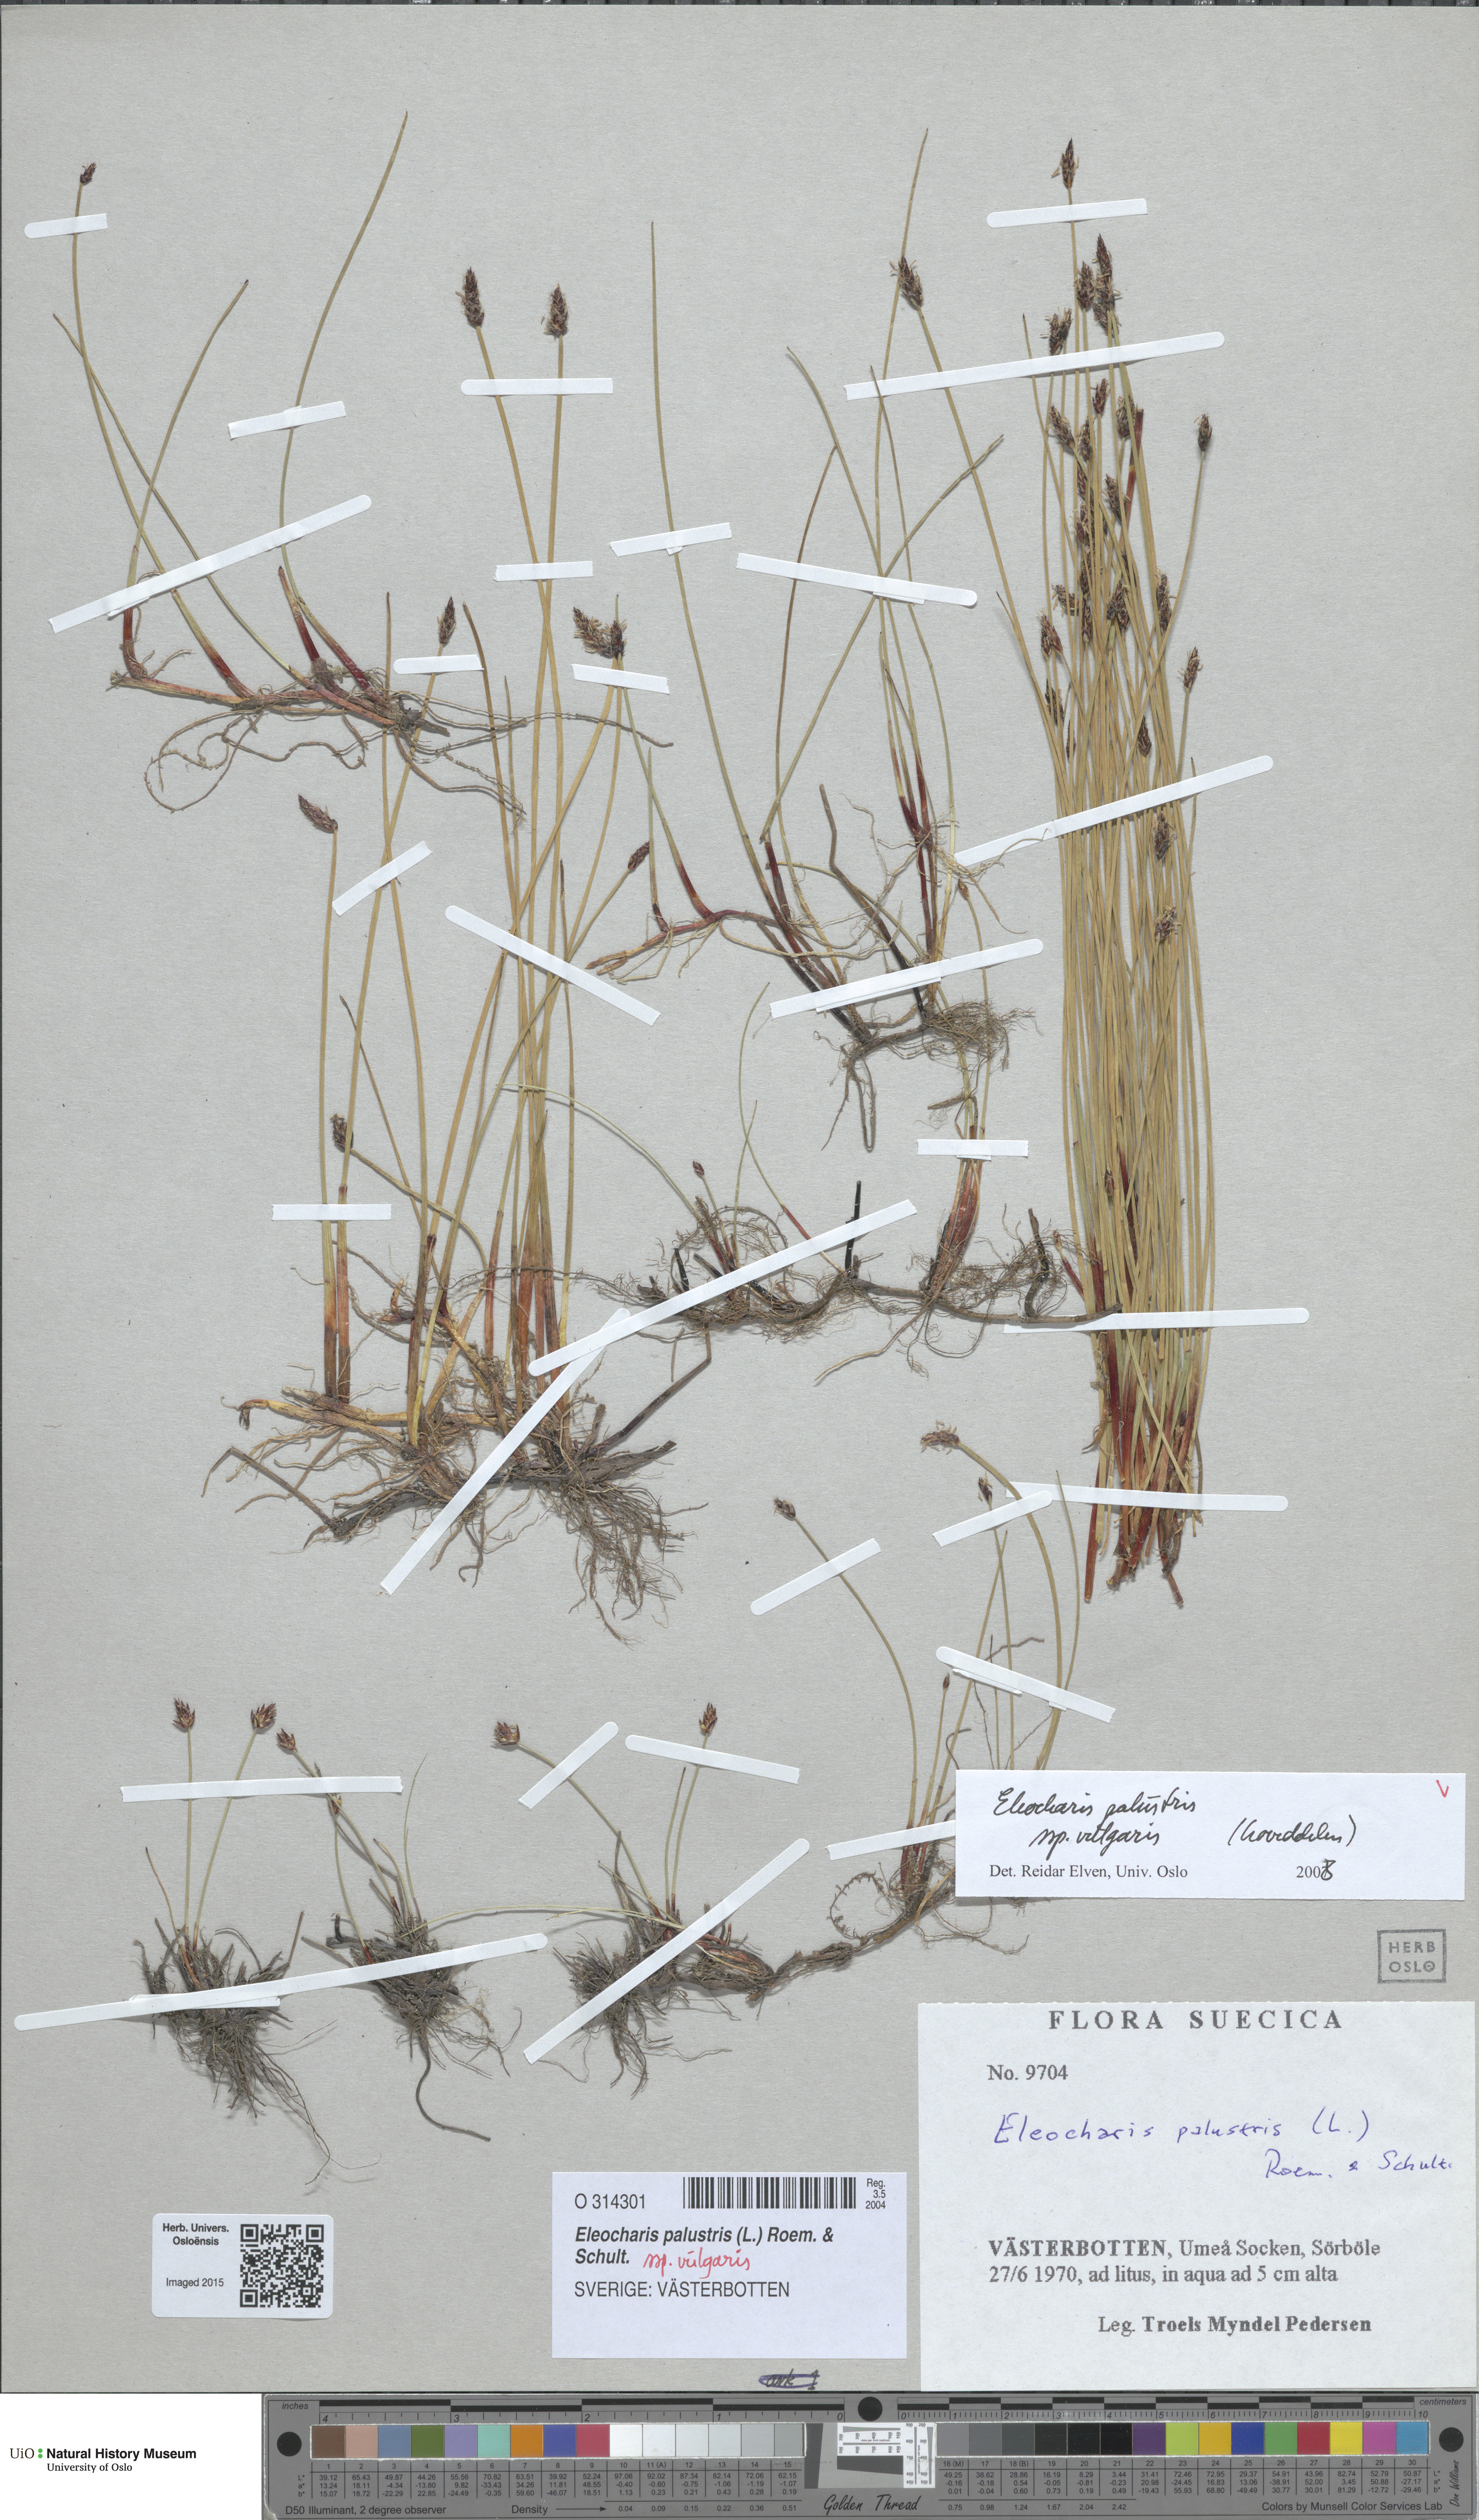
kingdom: Plantae
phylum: Tracheophyta
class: Liliopsida
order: Poales
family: Cyperaceae
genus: Eleocharis
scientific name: Eleocharis palustris
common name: Common spike-rush
